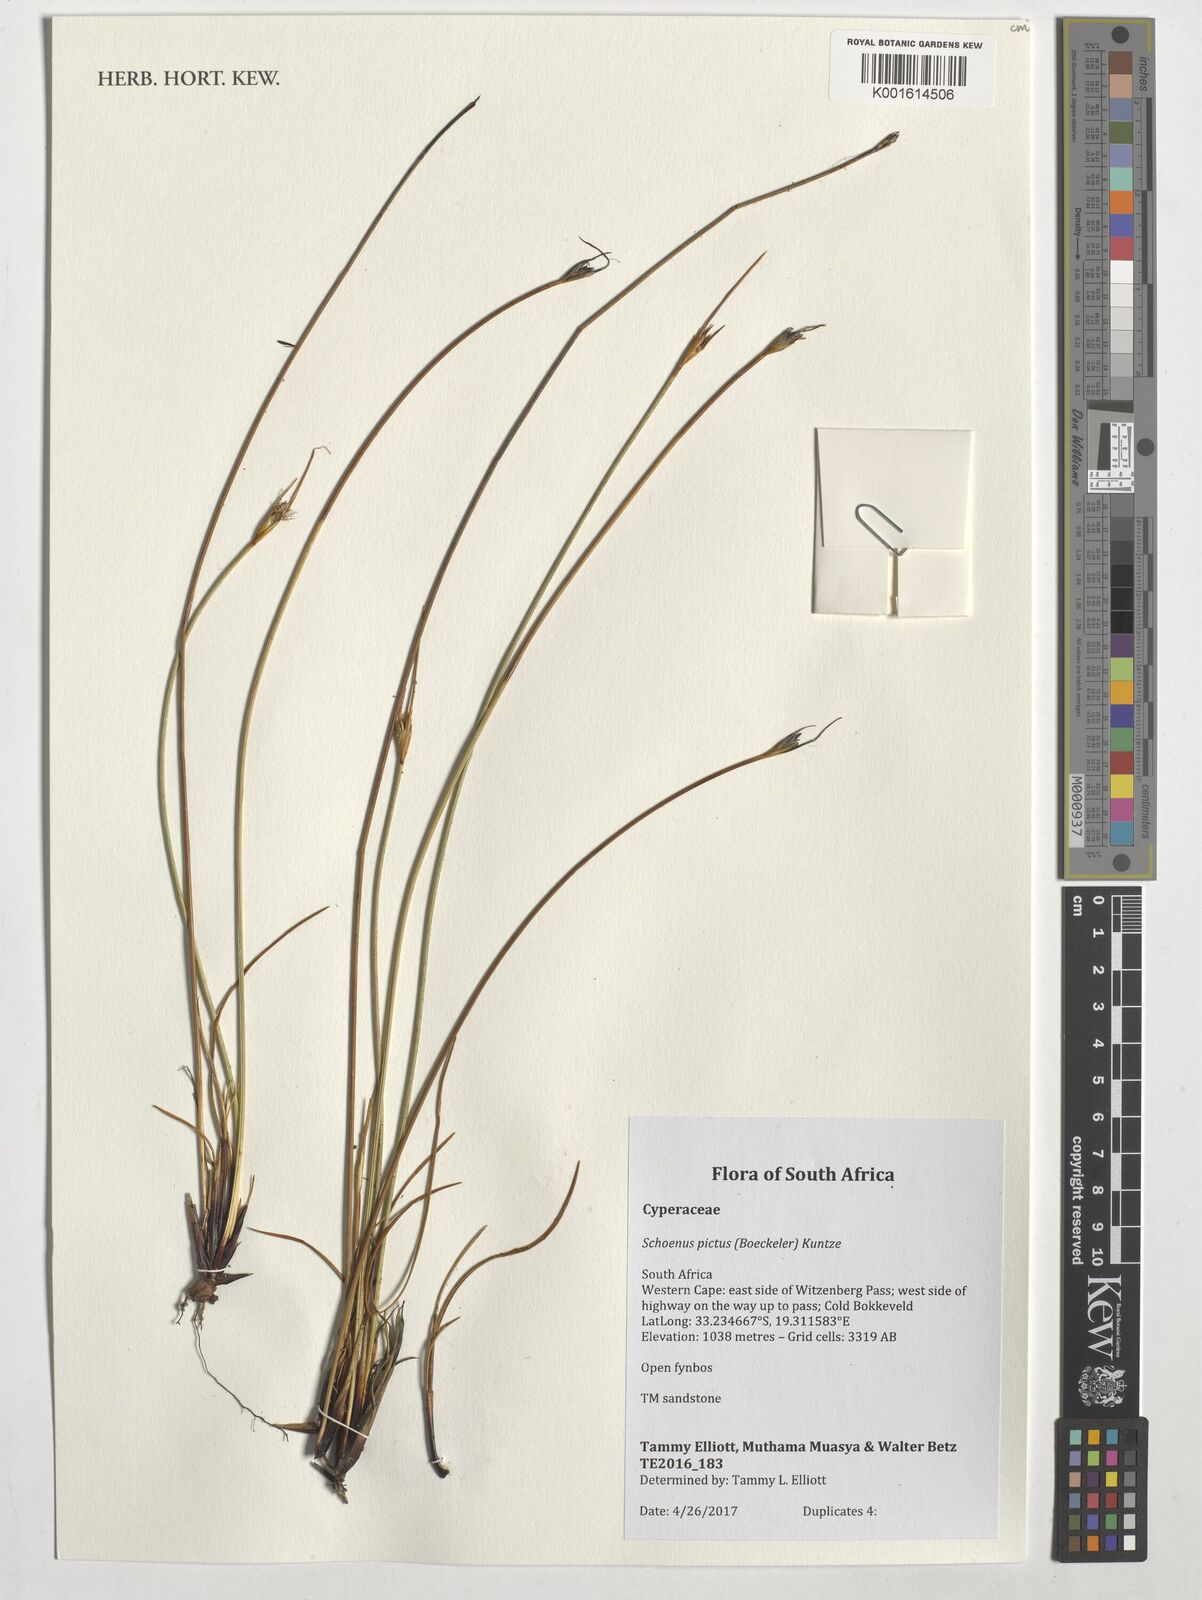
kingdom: Plantae
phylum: Tracheophyta
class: Liliopsida
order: Poales
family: Cyperaceae
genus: Schoenus
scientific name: Schoenus pictus
